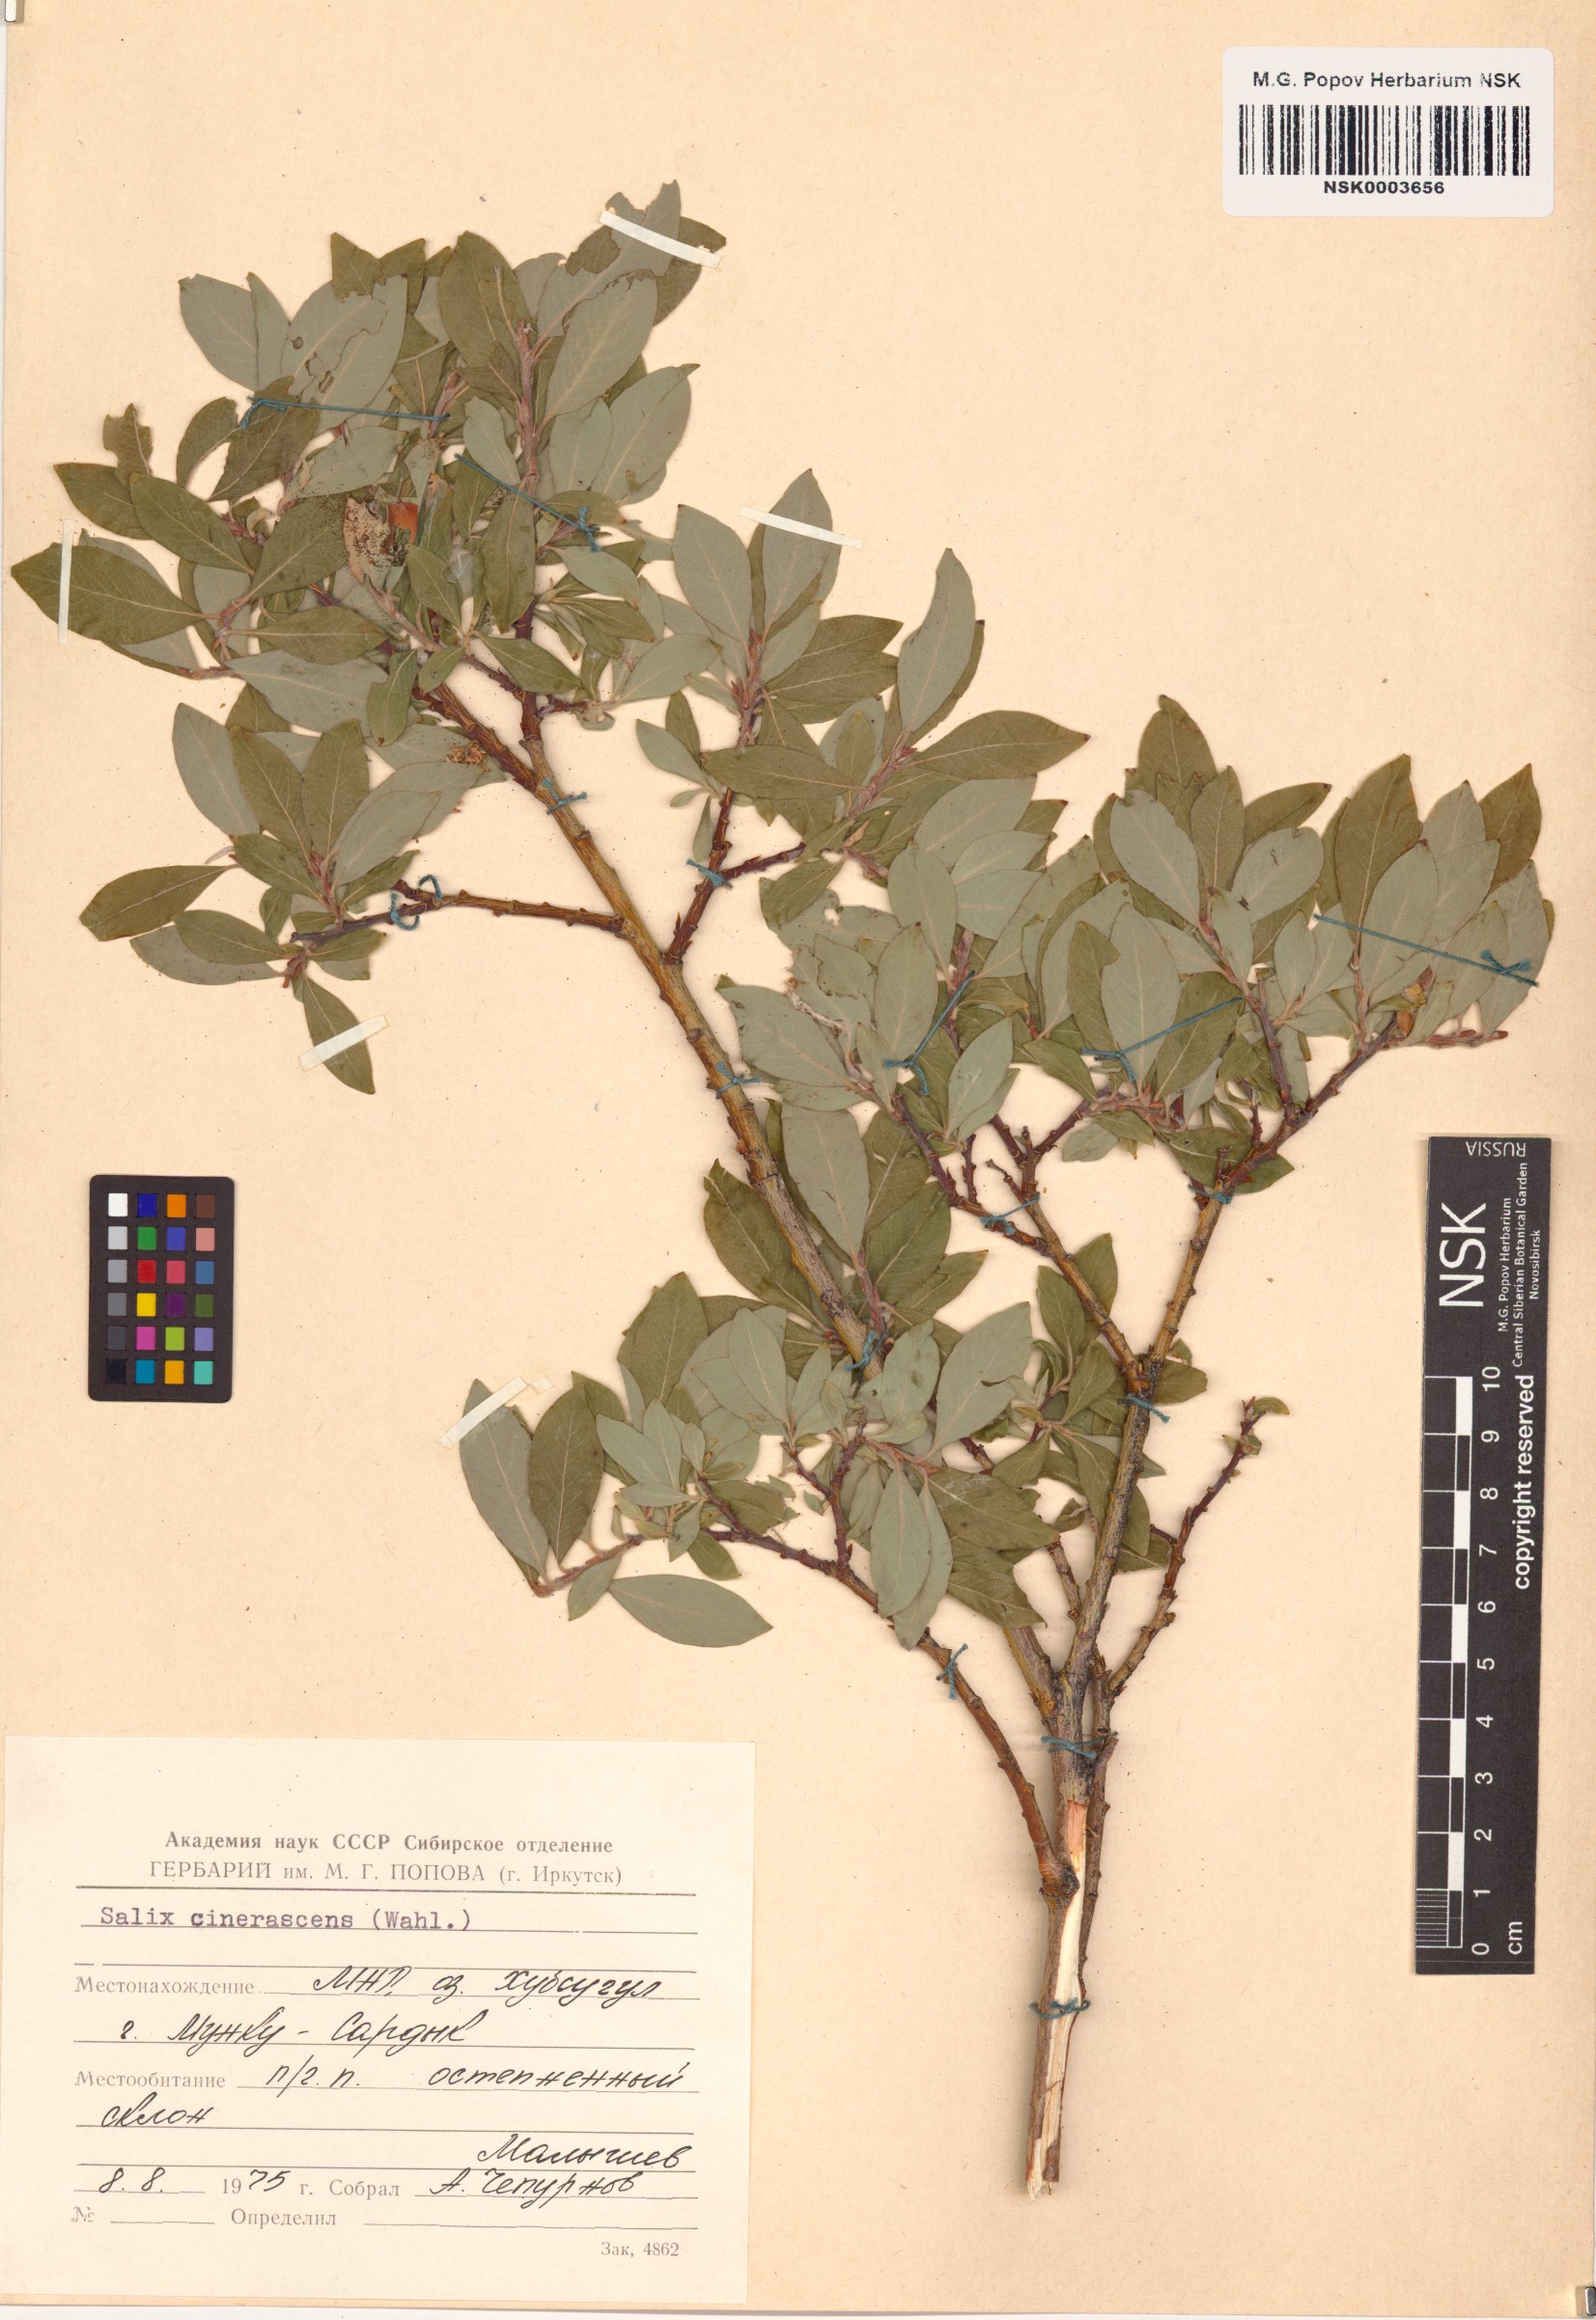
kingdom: Plantae
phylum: Tracheophyta
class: Magnoliopsida
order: Malpighiales
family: Salicaceae
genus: Salix
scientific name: Salix bebbiana
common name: Bebb's willow
